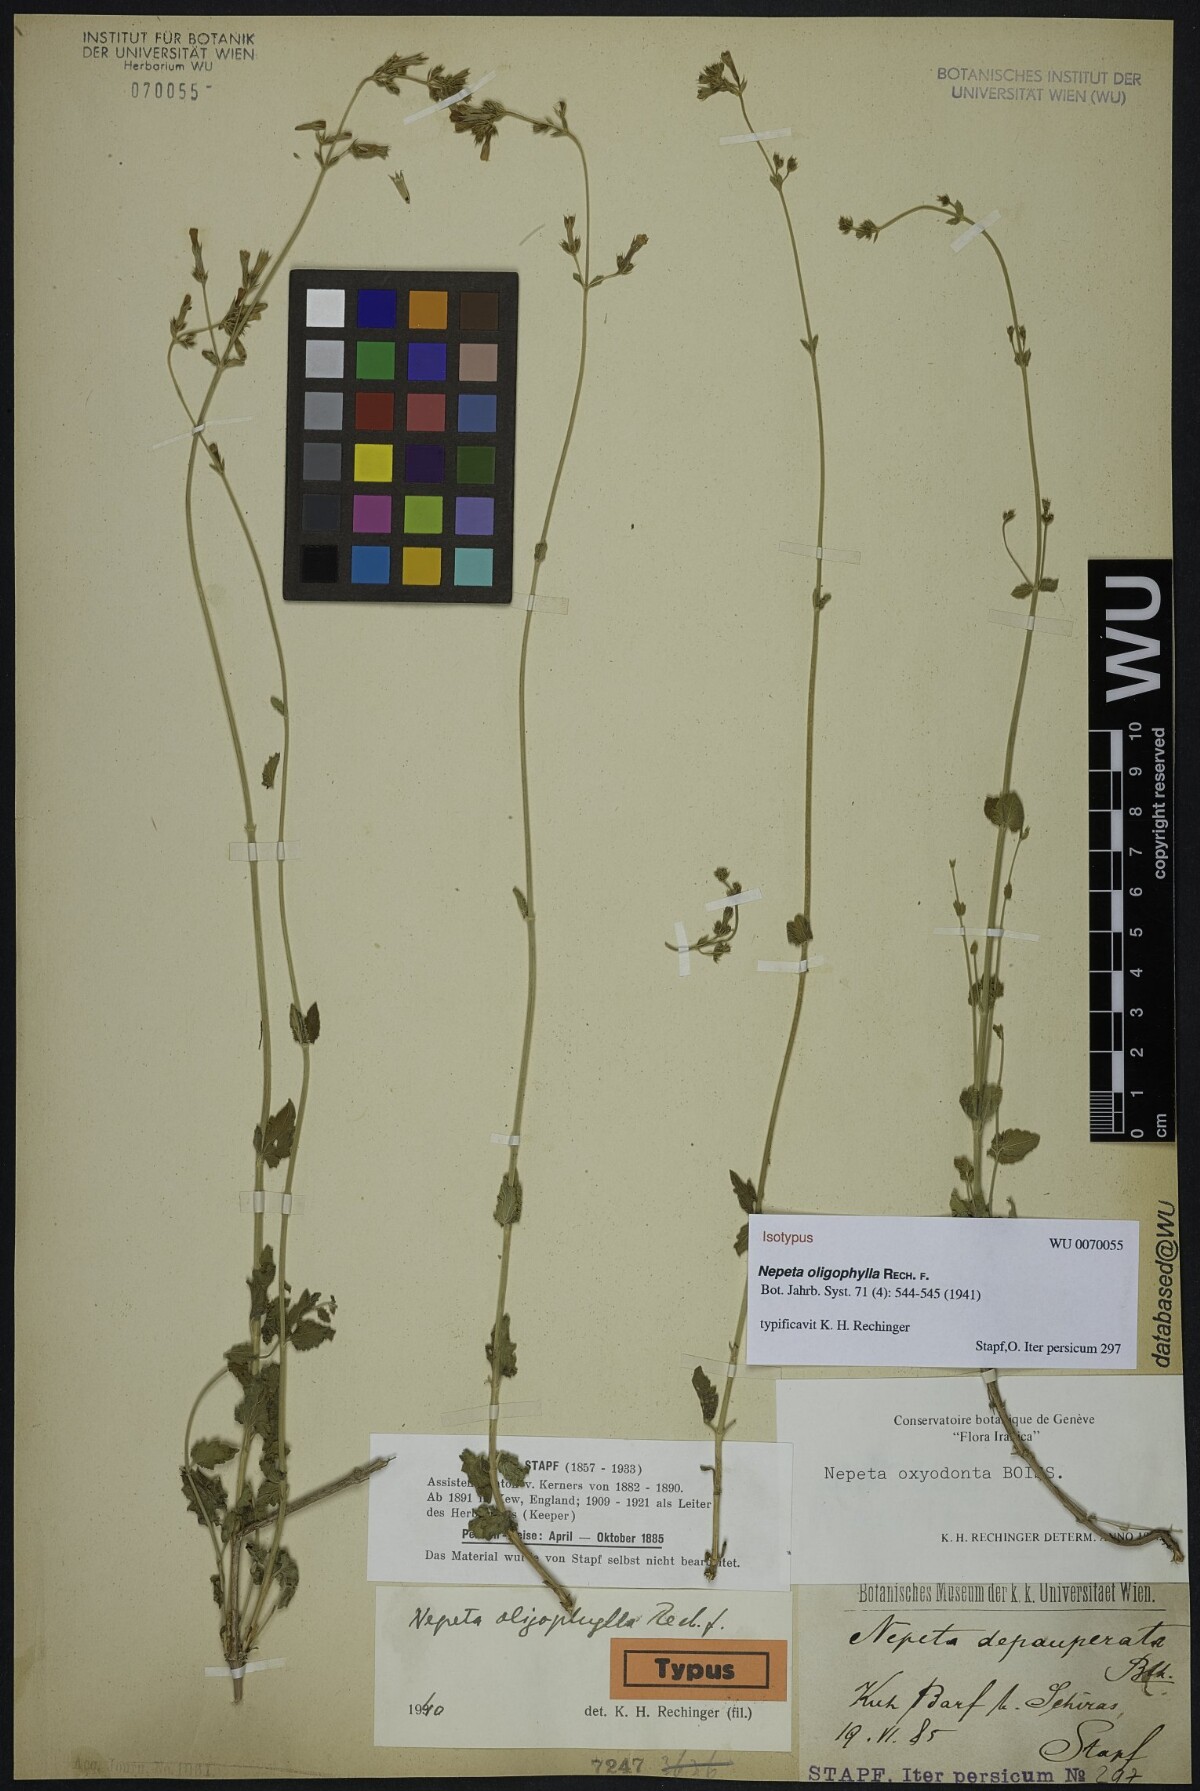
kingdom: Plantae
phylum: Tracheophyta
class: Magnoliopsida
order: Lamiales
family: Lamiaceae
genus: Nepeta
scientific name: Nepeta oxyodonta
